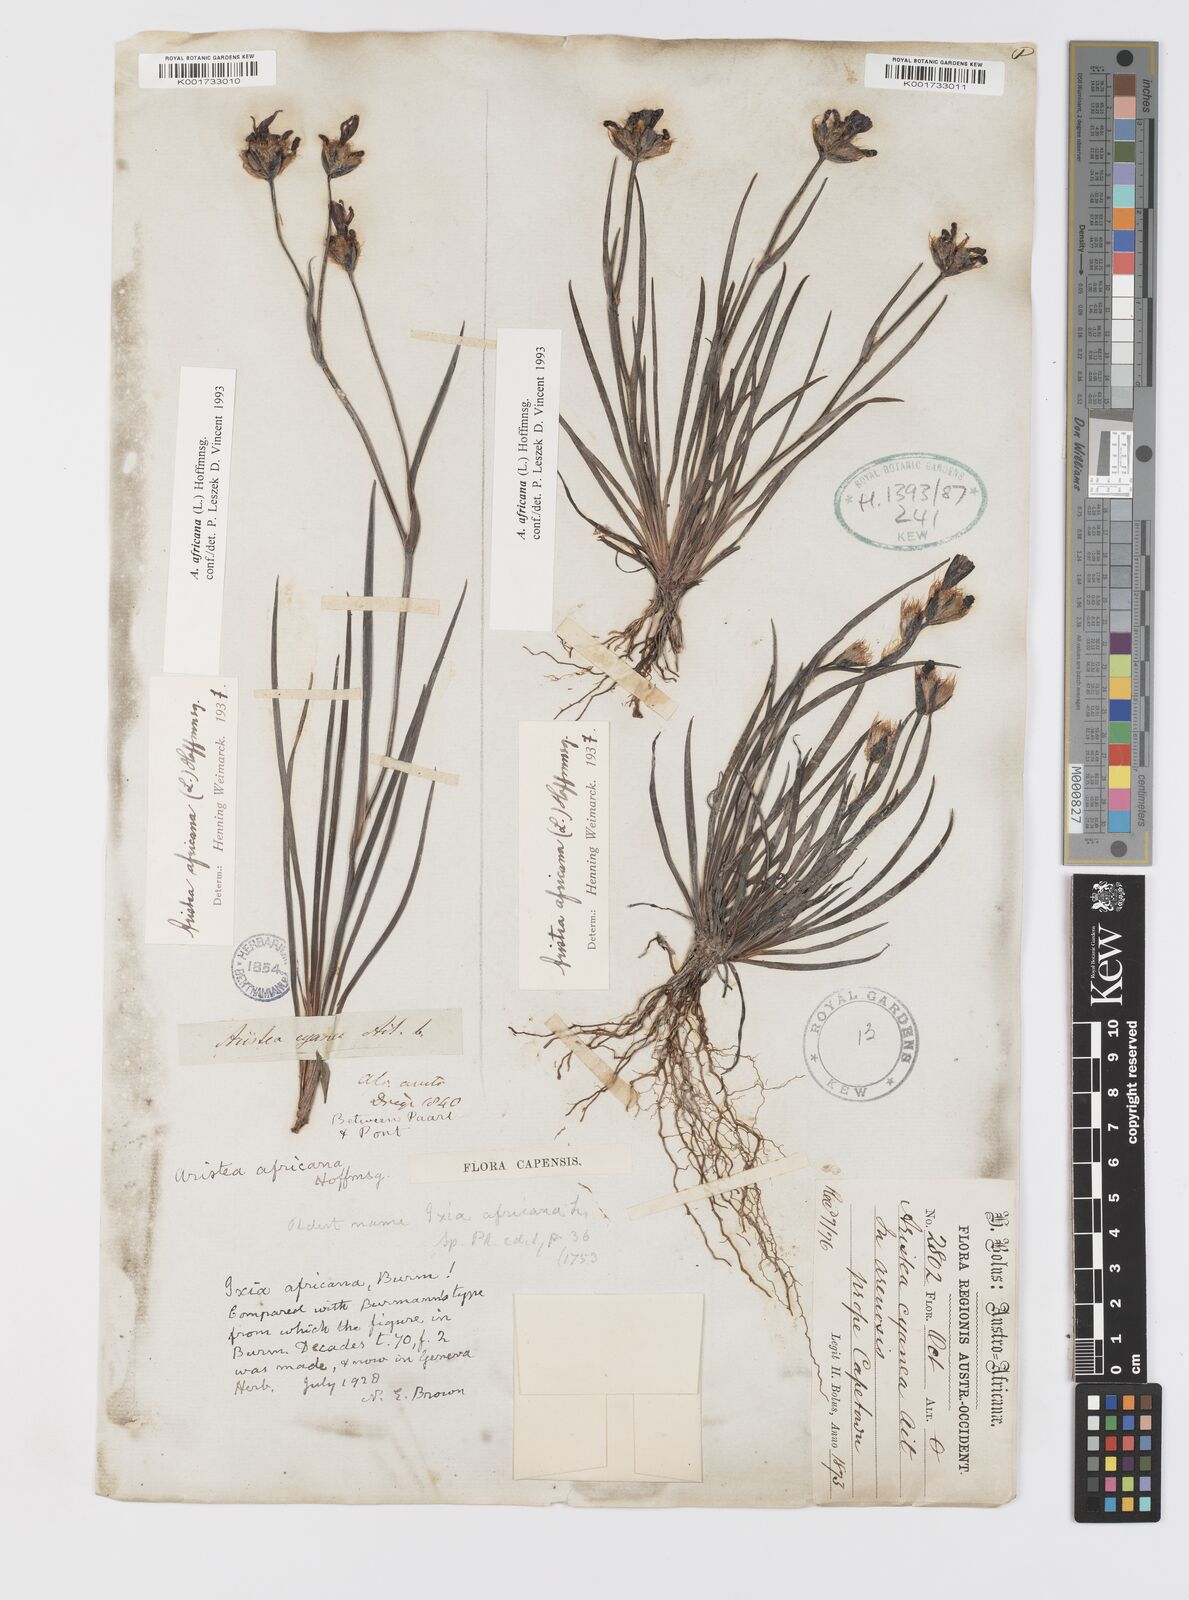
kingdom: Plantae
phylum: Tracheophyta
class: Liliopsida
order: Asparagales
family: Iridaceae
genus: Aristea
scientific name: Aristea africana
